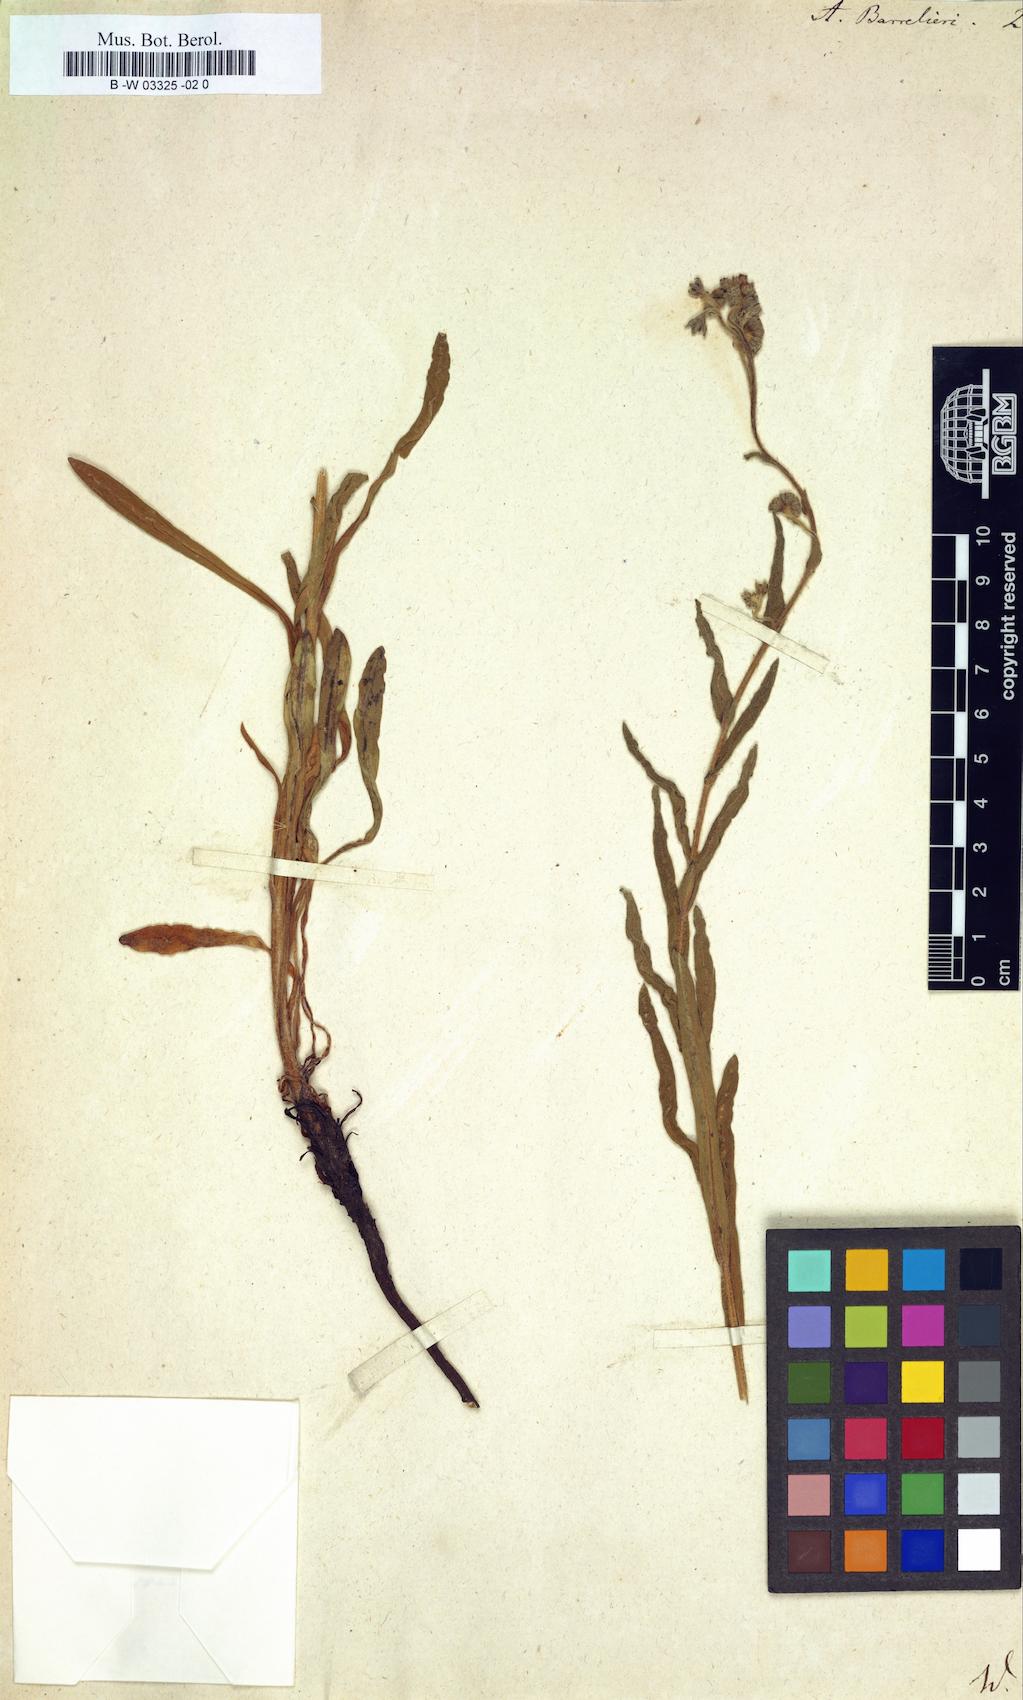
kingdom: Plantae
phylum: Tracheophyta
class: Magnoliopsida
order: Boraginales
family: Boraginaceae
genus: Cynoglottis
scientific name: Cynoglottis barrelieri
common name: False alkanet
